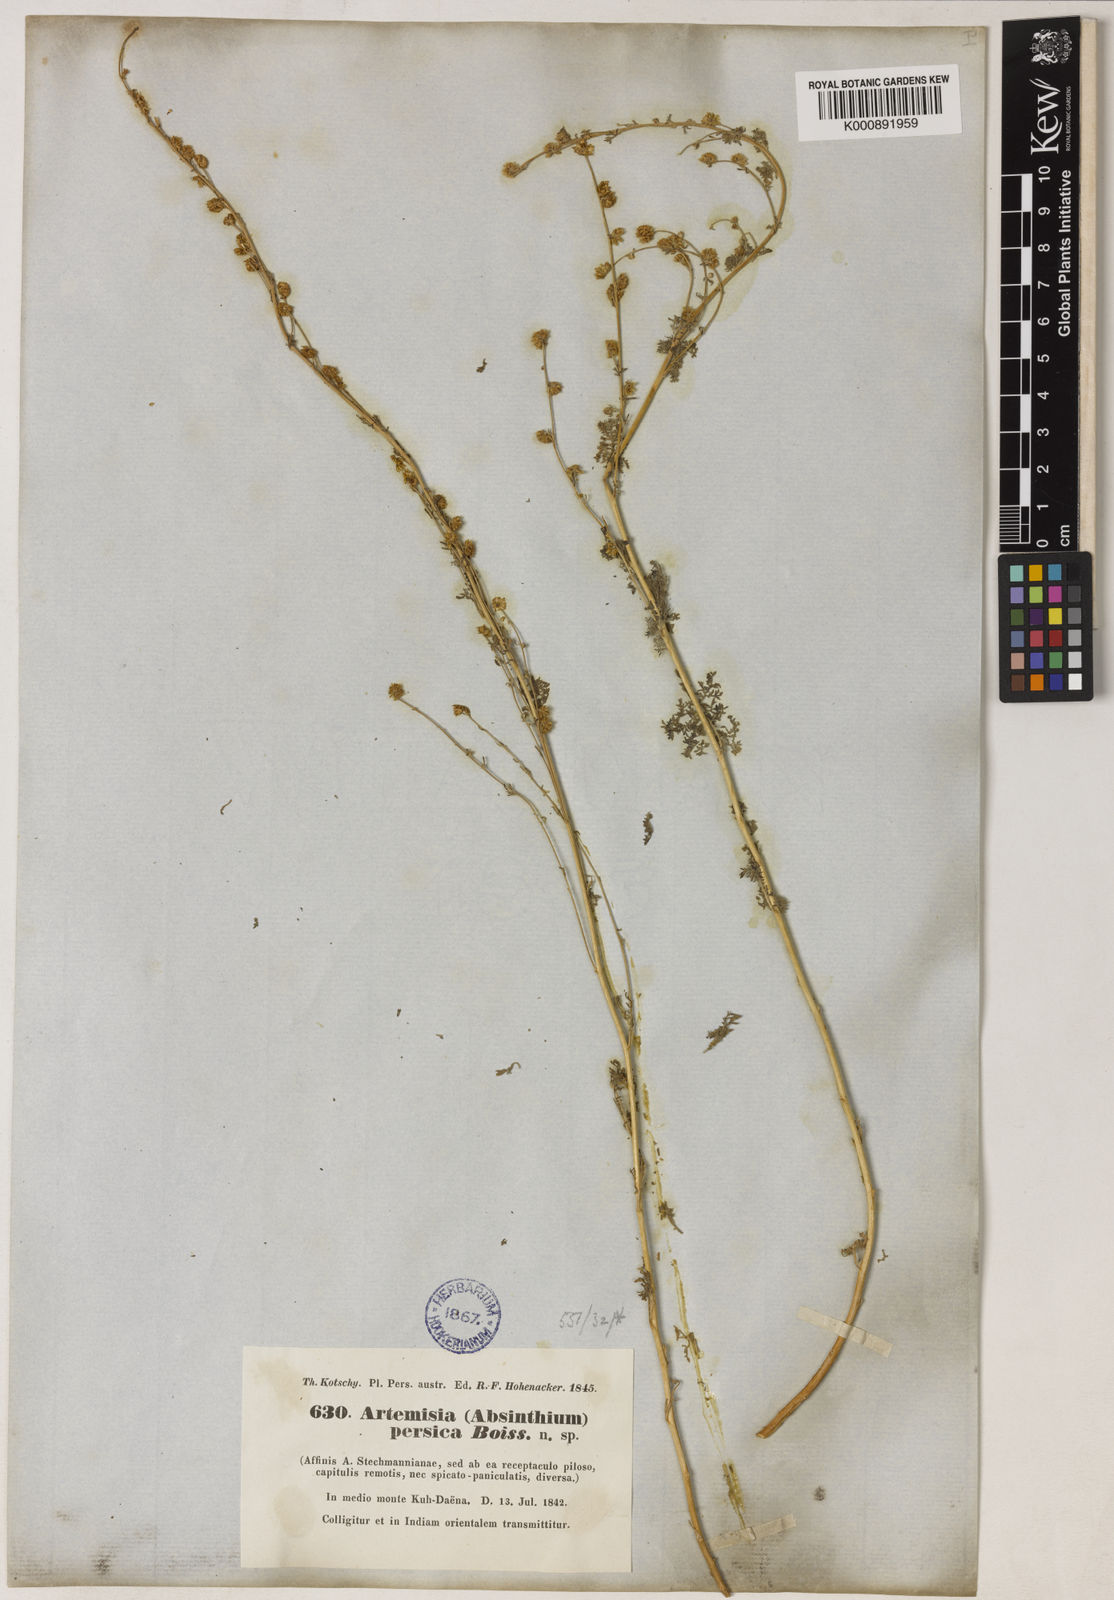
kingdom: Plantae
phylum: Tracheophyta
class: Magnoliopsida
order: Asterales
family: Asteraceae
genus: Artemisia
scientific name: Artemisia persica
